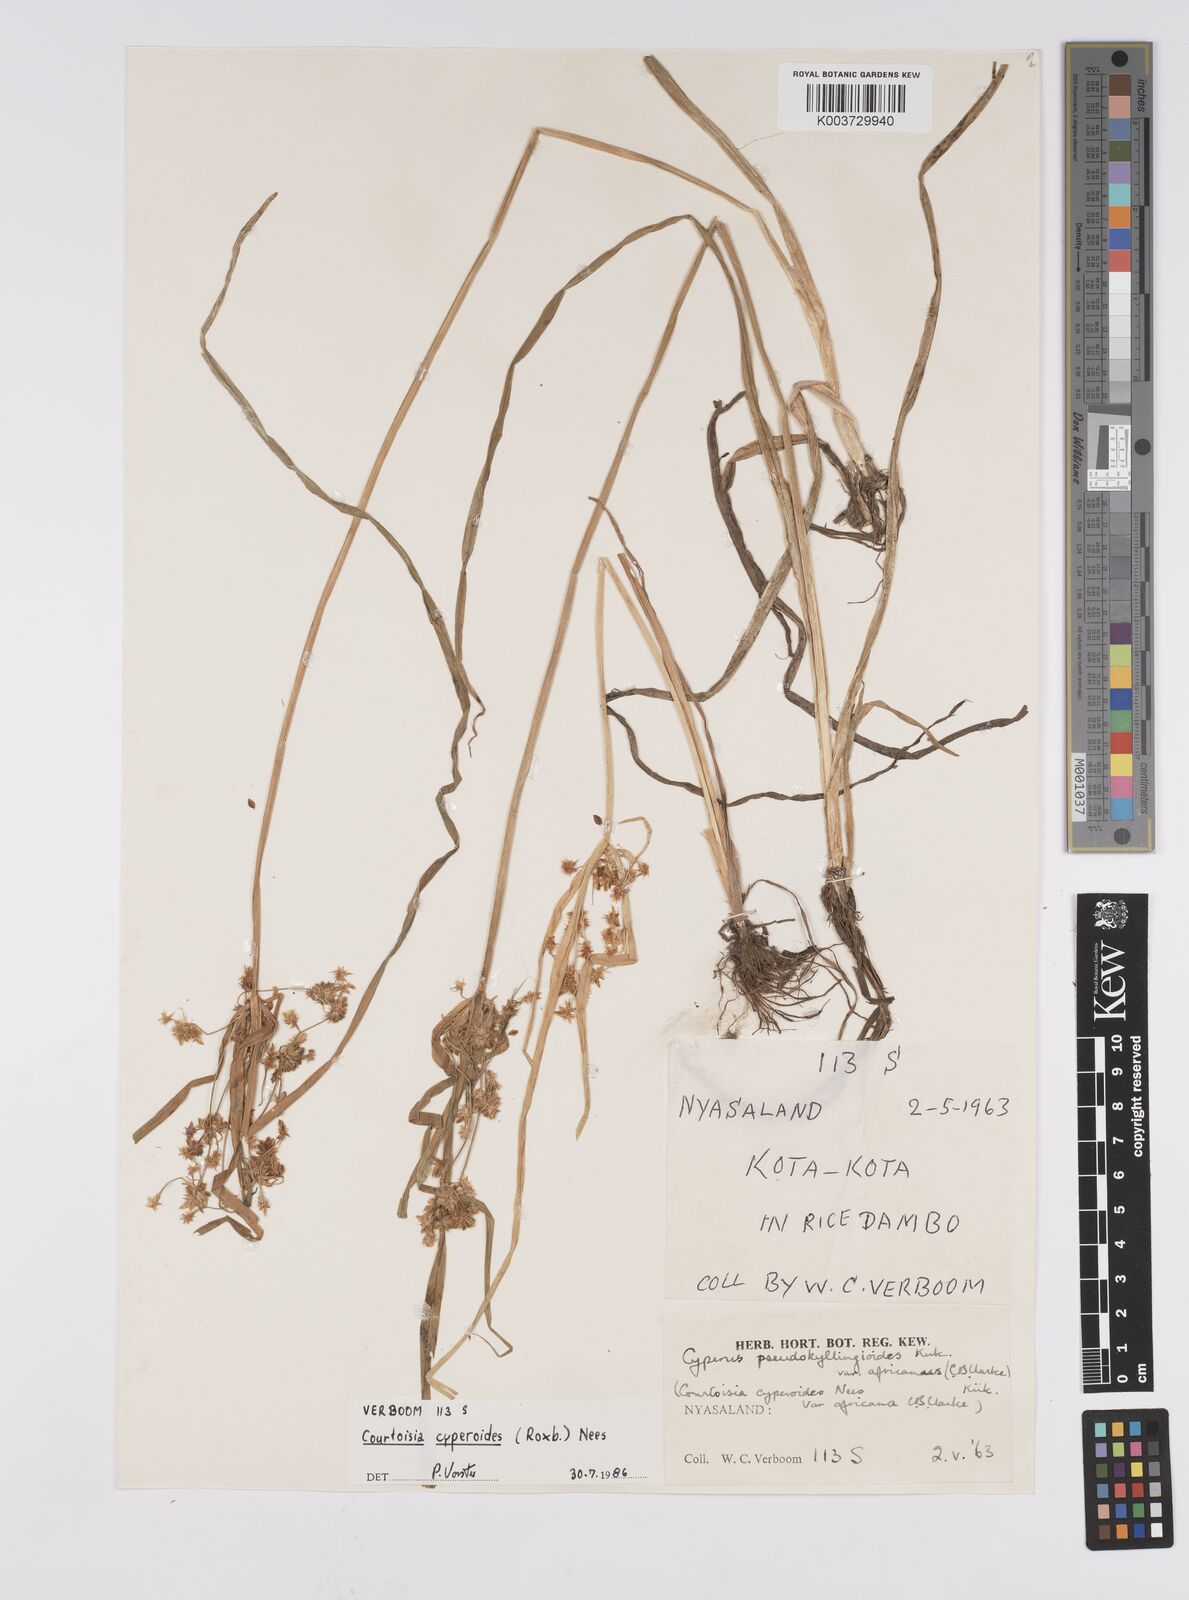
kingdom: Plantae
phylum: Tracheophyta
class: Liliopsida
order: Poales
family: Cyperaceae
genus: Cyperus
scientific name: Cyperus cyperoides
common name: Pacific island flat sedge
